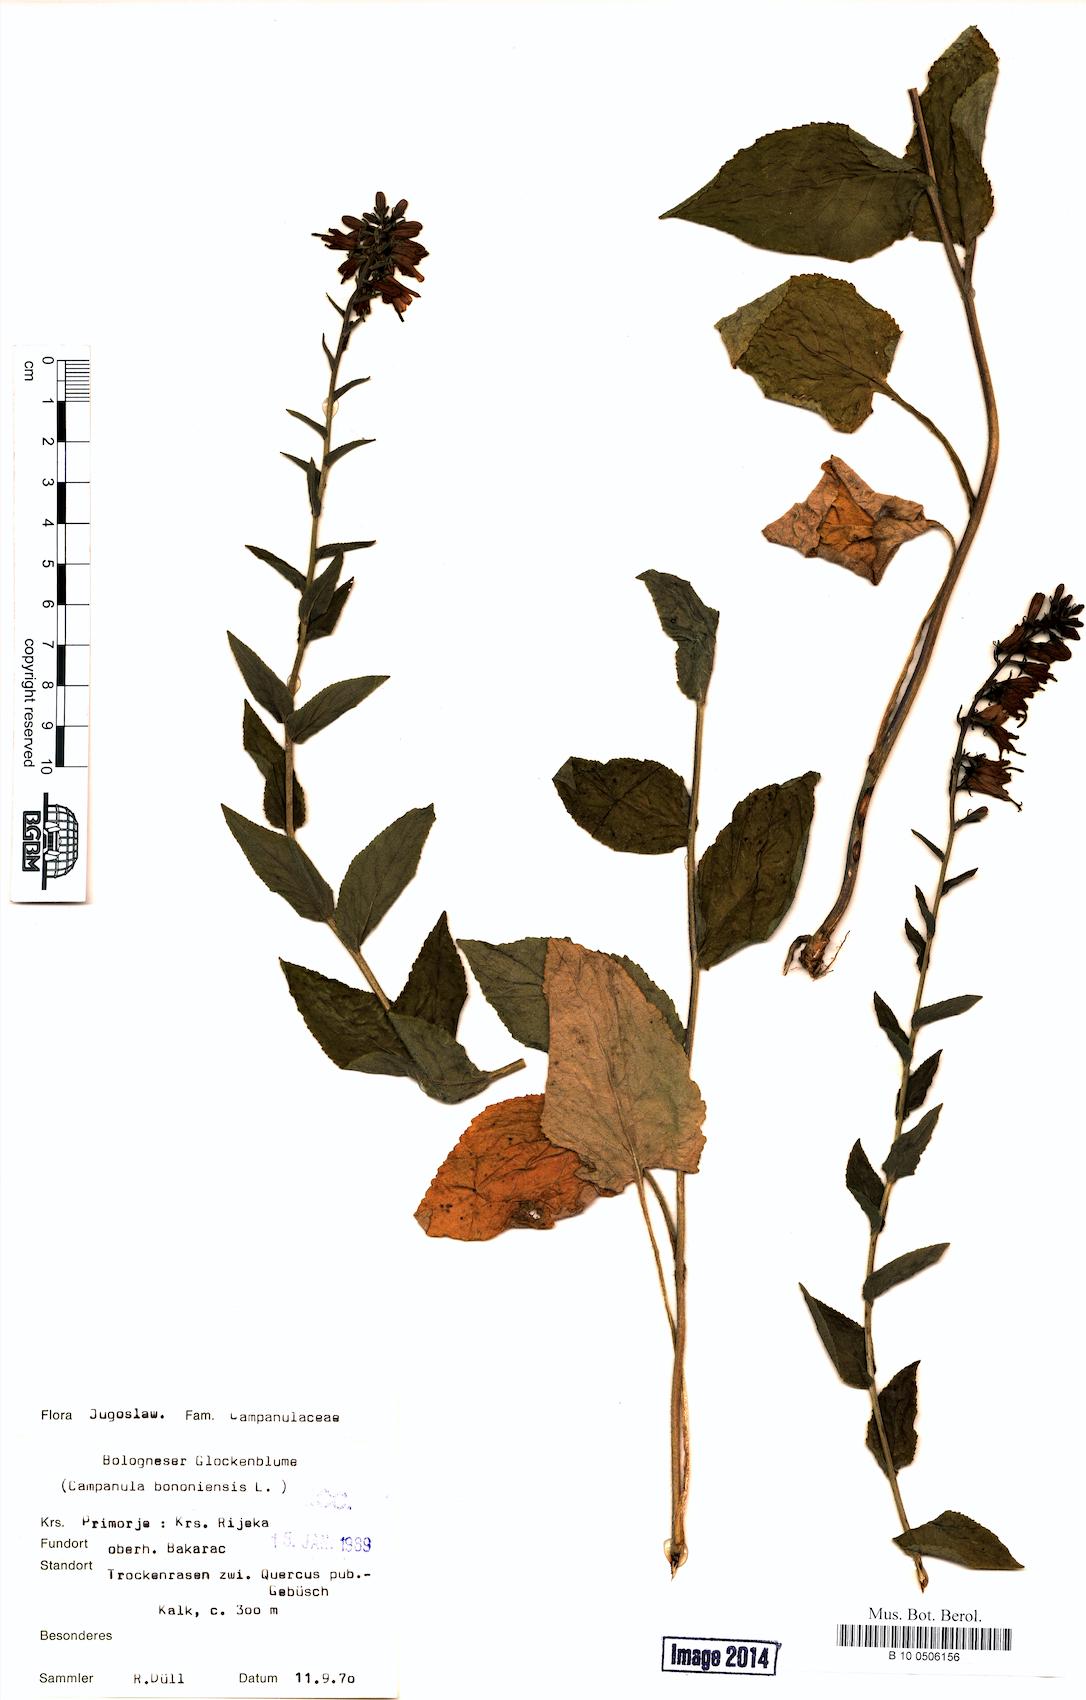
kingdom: Plantae
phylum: Tracheophyta
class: Magnoliopsida
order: Asterales
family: Campanulaceae
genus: Campanula
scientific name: Campanula bononiensis
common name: Pale bellflower
